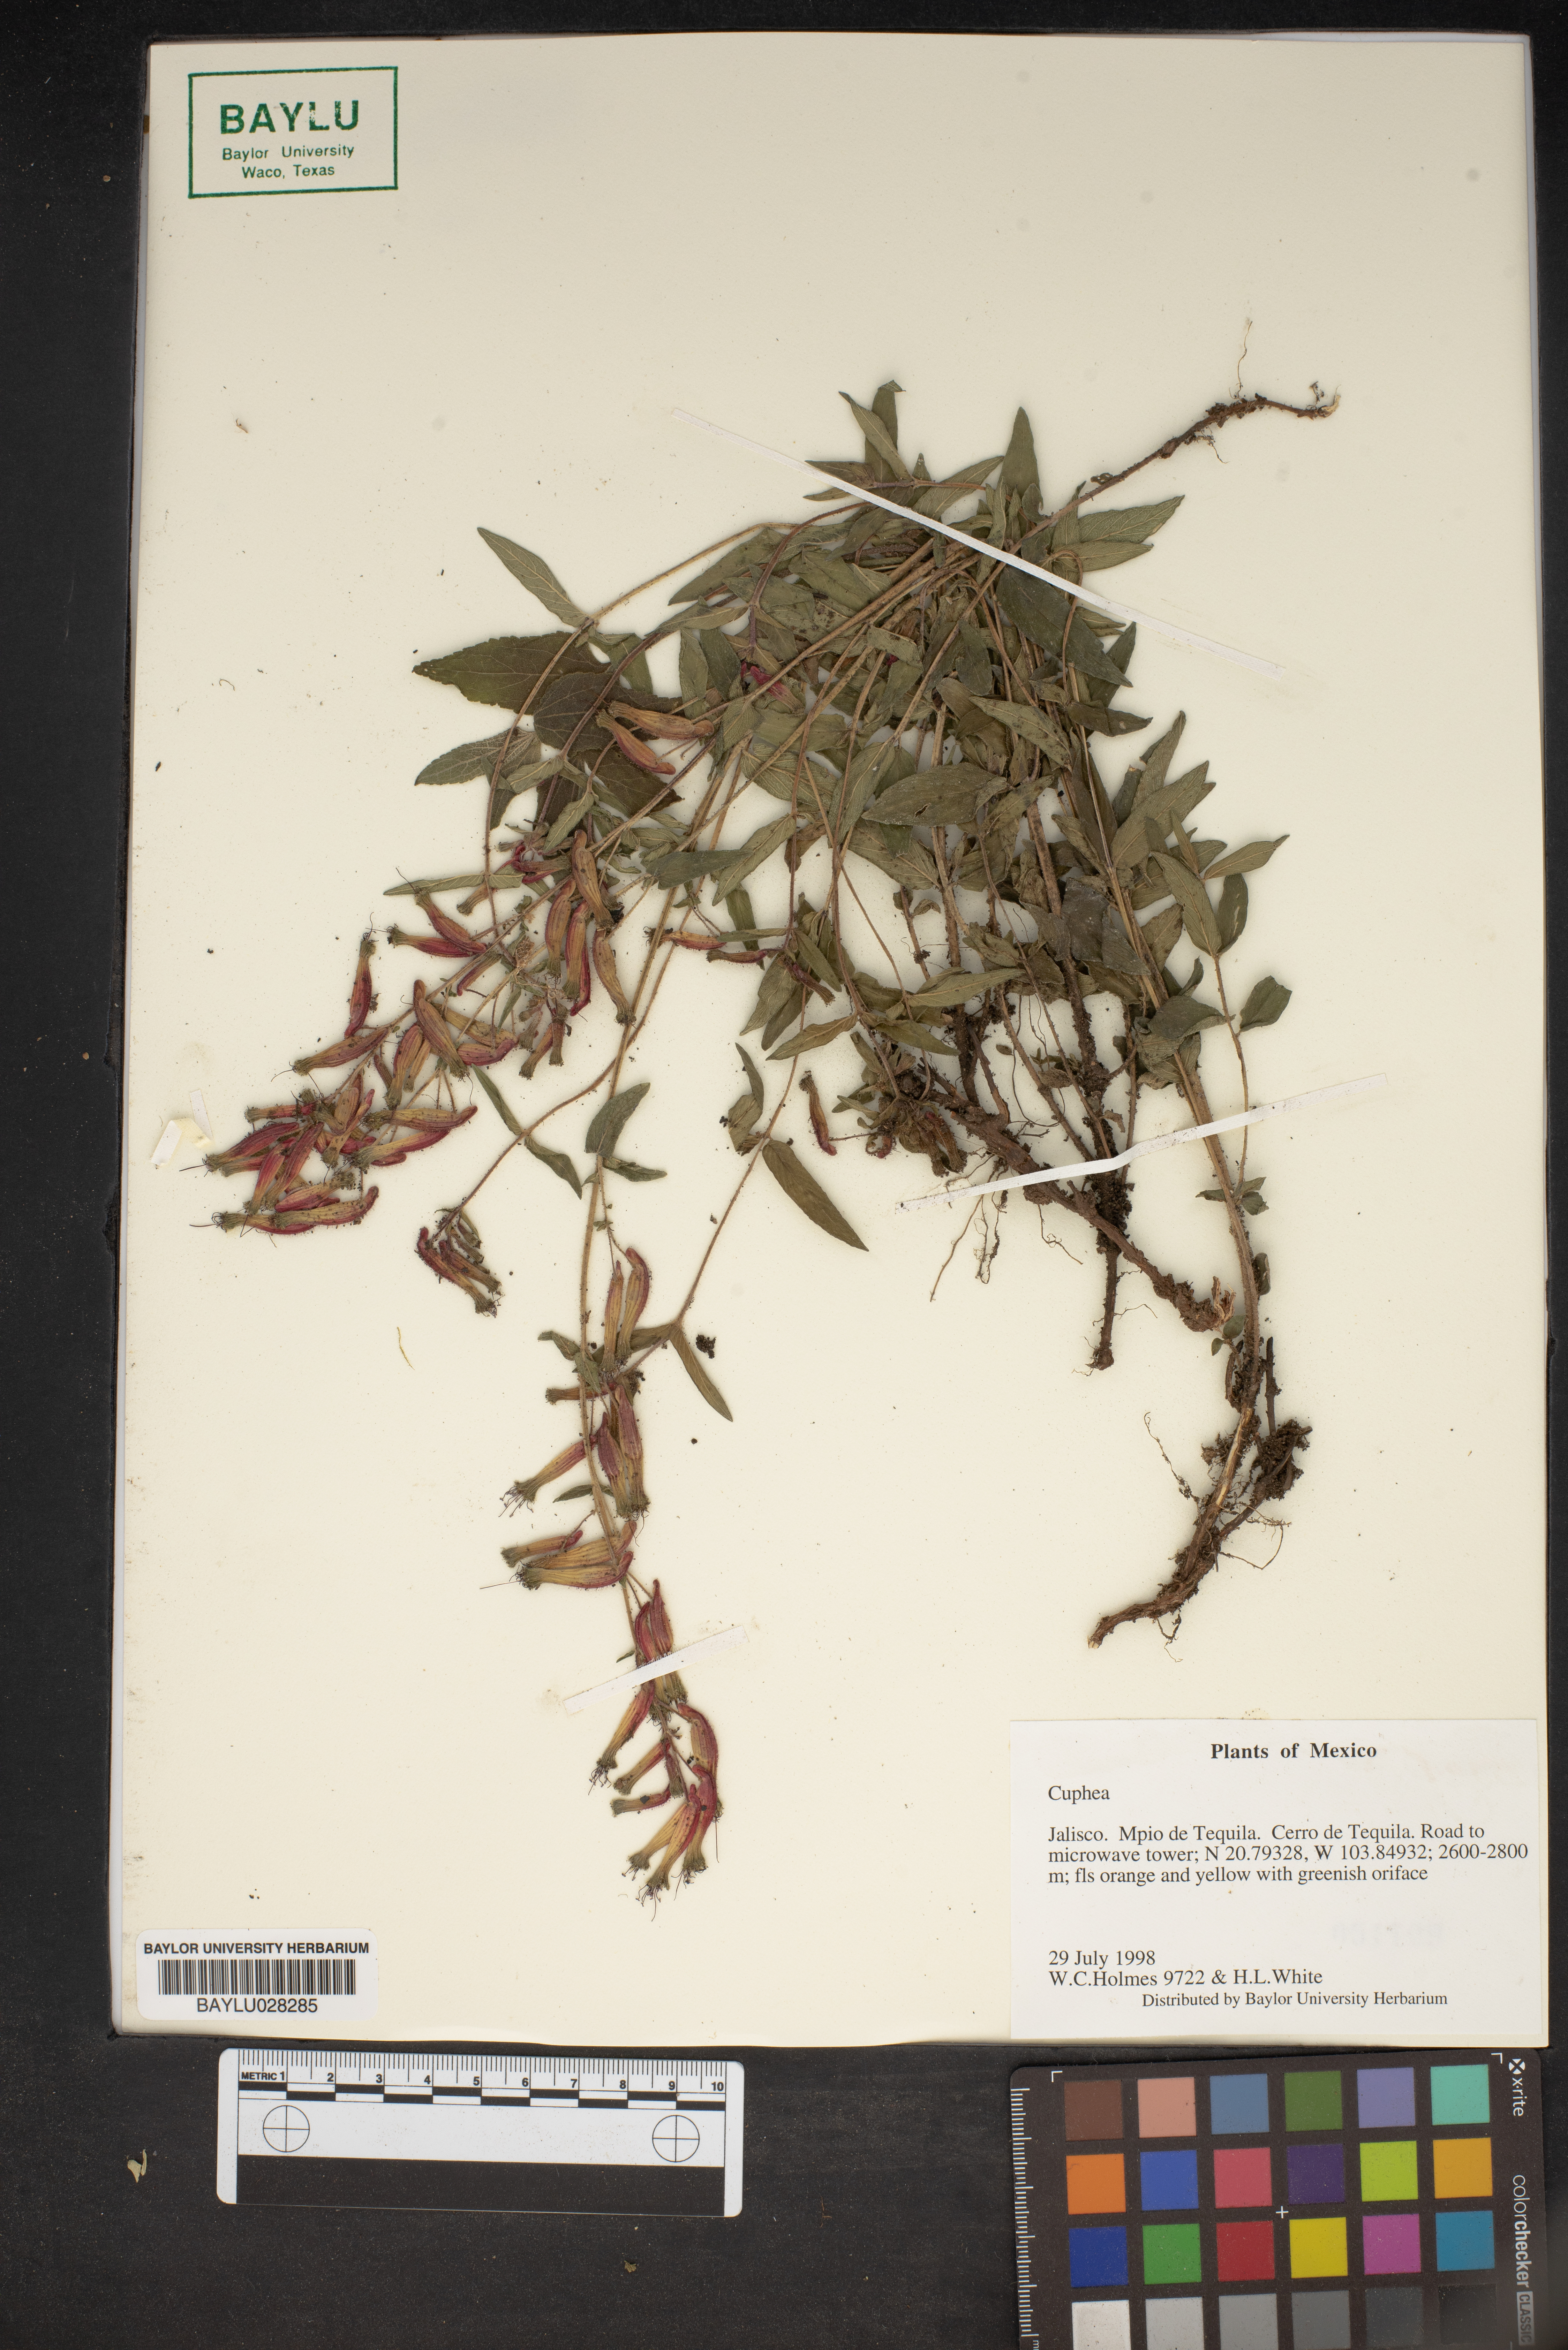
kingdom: Plantae
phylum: Tracheophyta
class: Magnoliopsida
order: Myrtales
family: Lythraceae
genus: Cuphea
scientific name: Cuphea
